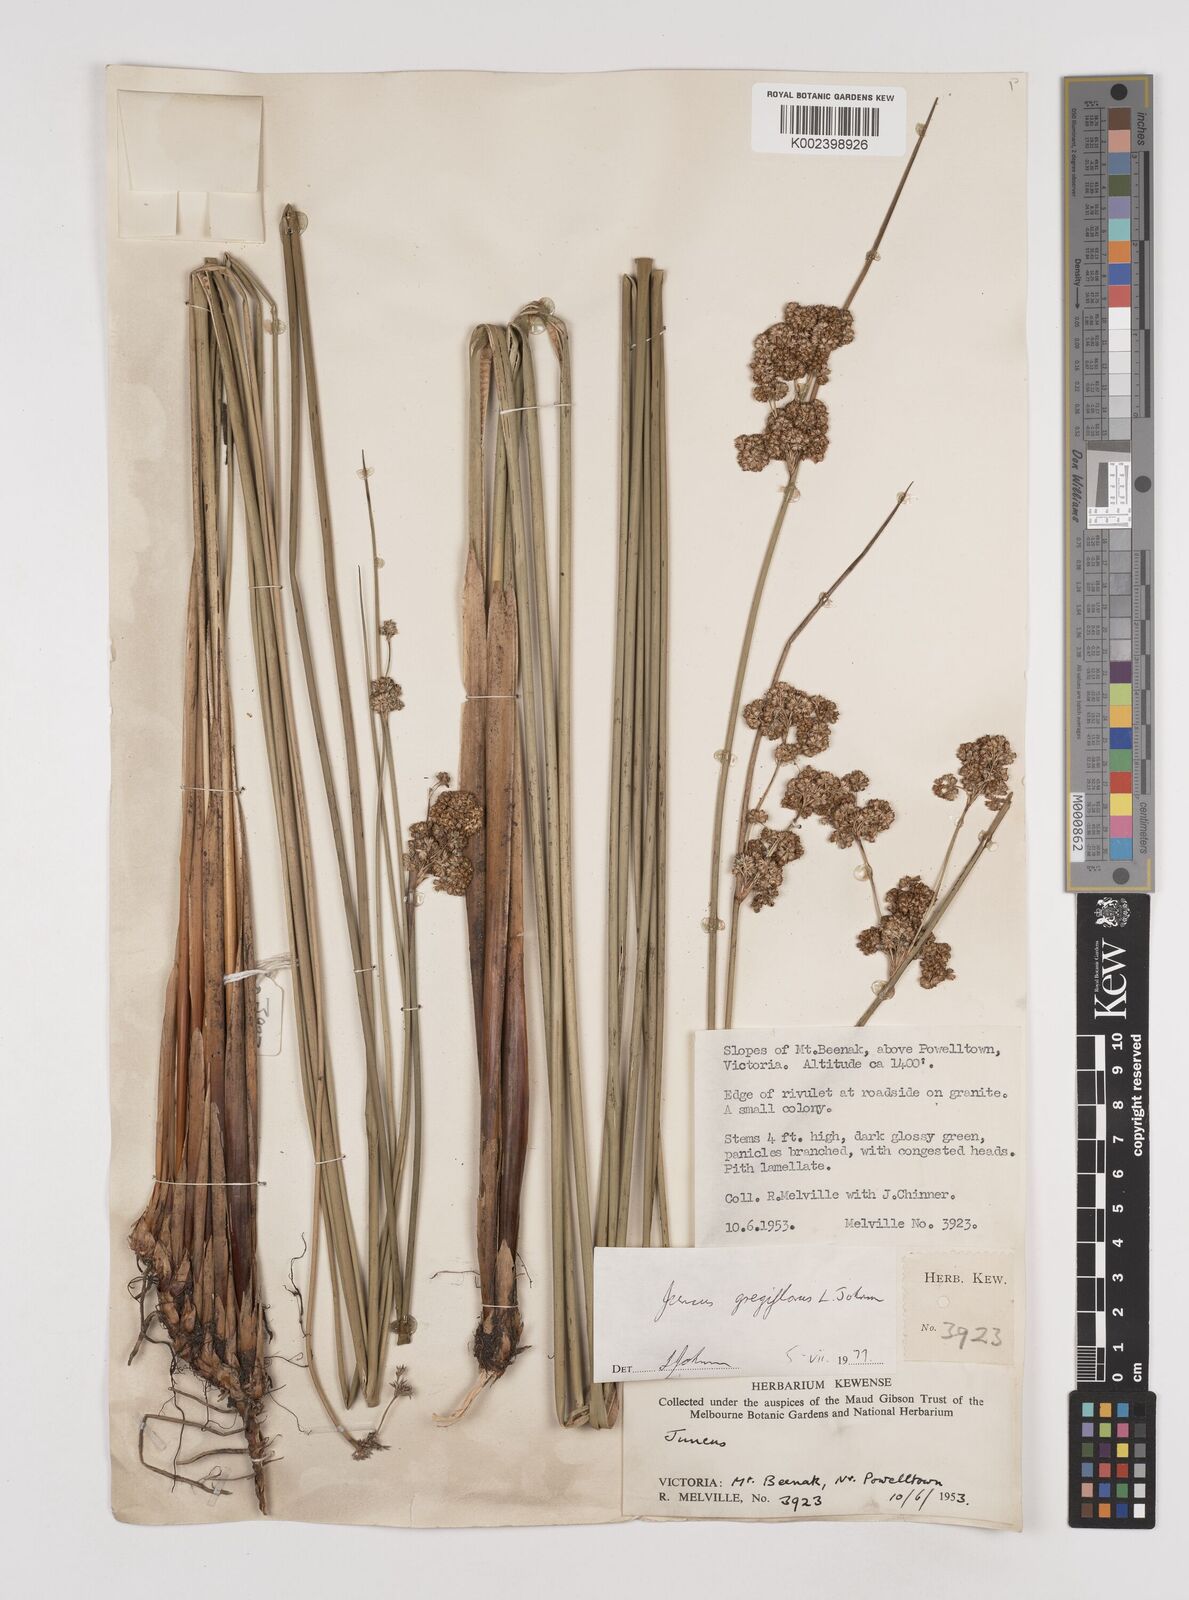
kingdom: Plantae
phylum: Tracheophyta
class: Liliopsida
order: Poales
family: Juncaceae
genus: Juncus
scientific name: Juncus gregiflorus
